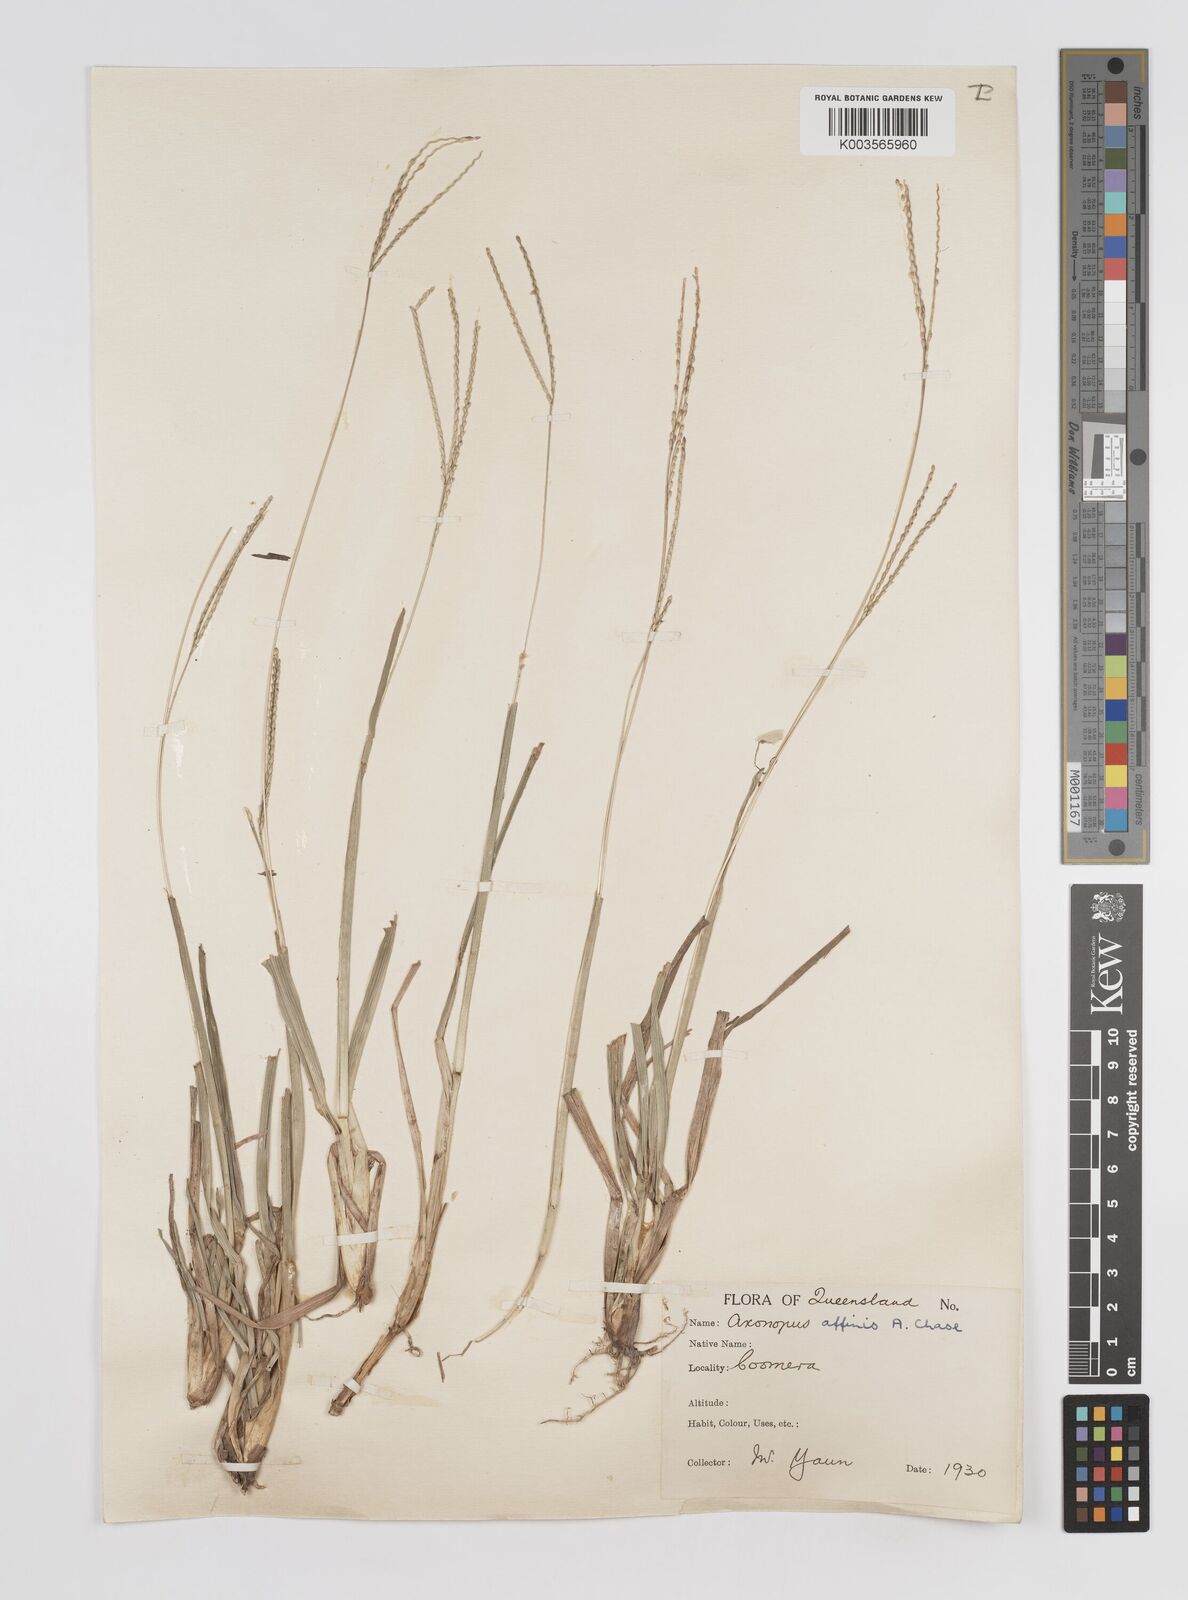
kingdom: Plantae
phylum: Tracheophyta
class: Liliopsida
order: Poales
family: Poaceae
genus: Axonopus
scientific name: Axonopus fissifolius
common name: Common carpetgrass
